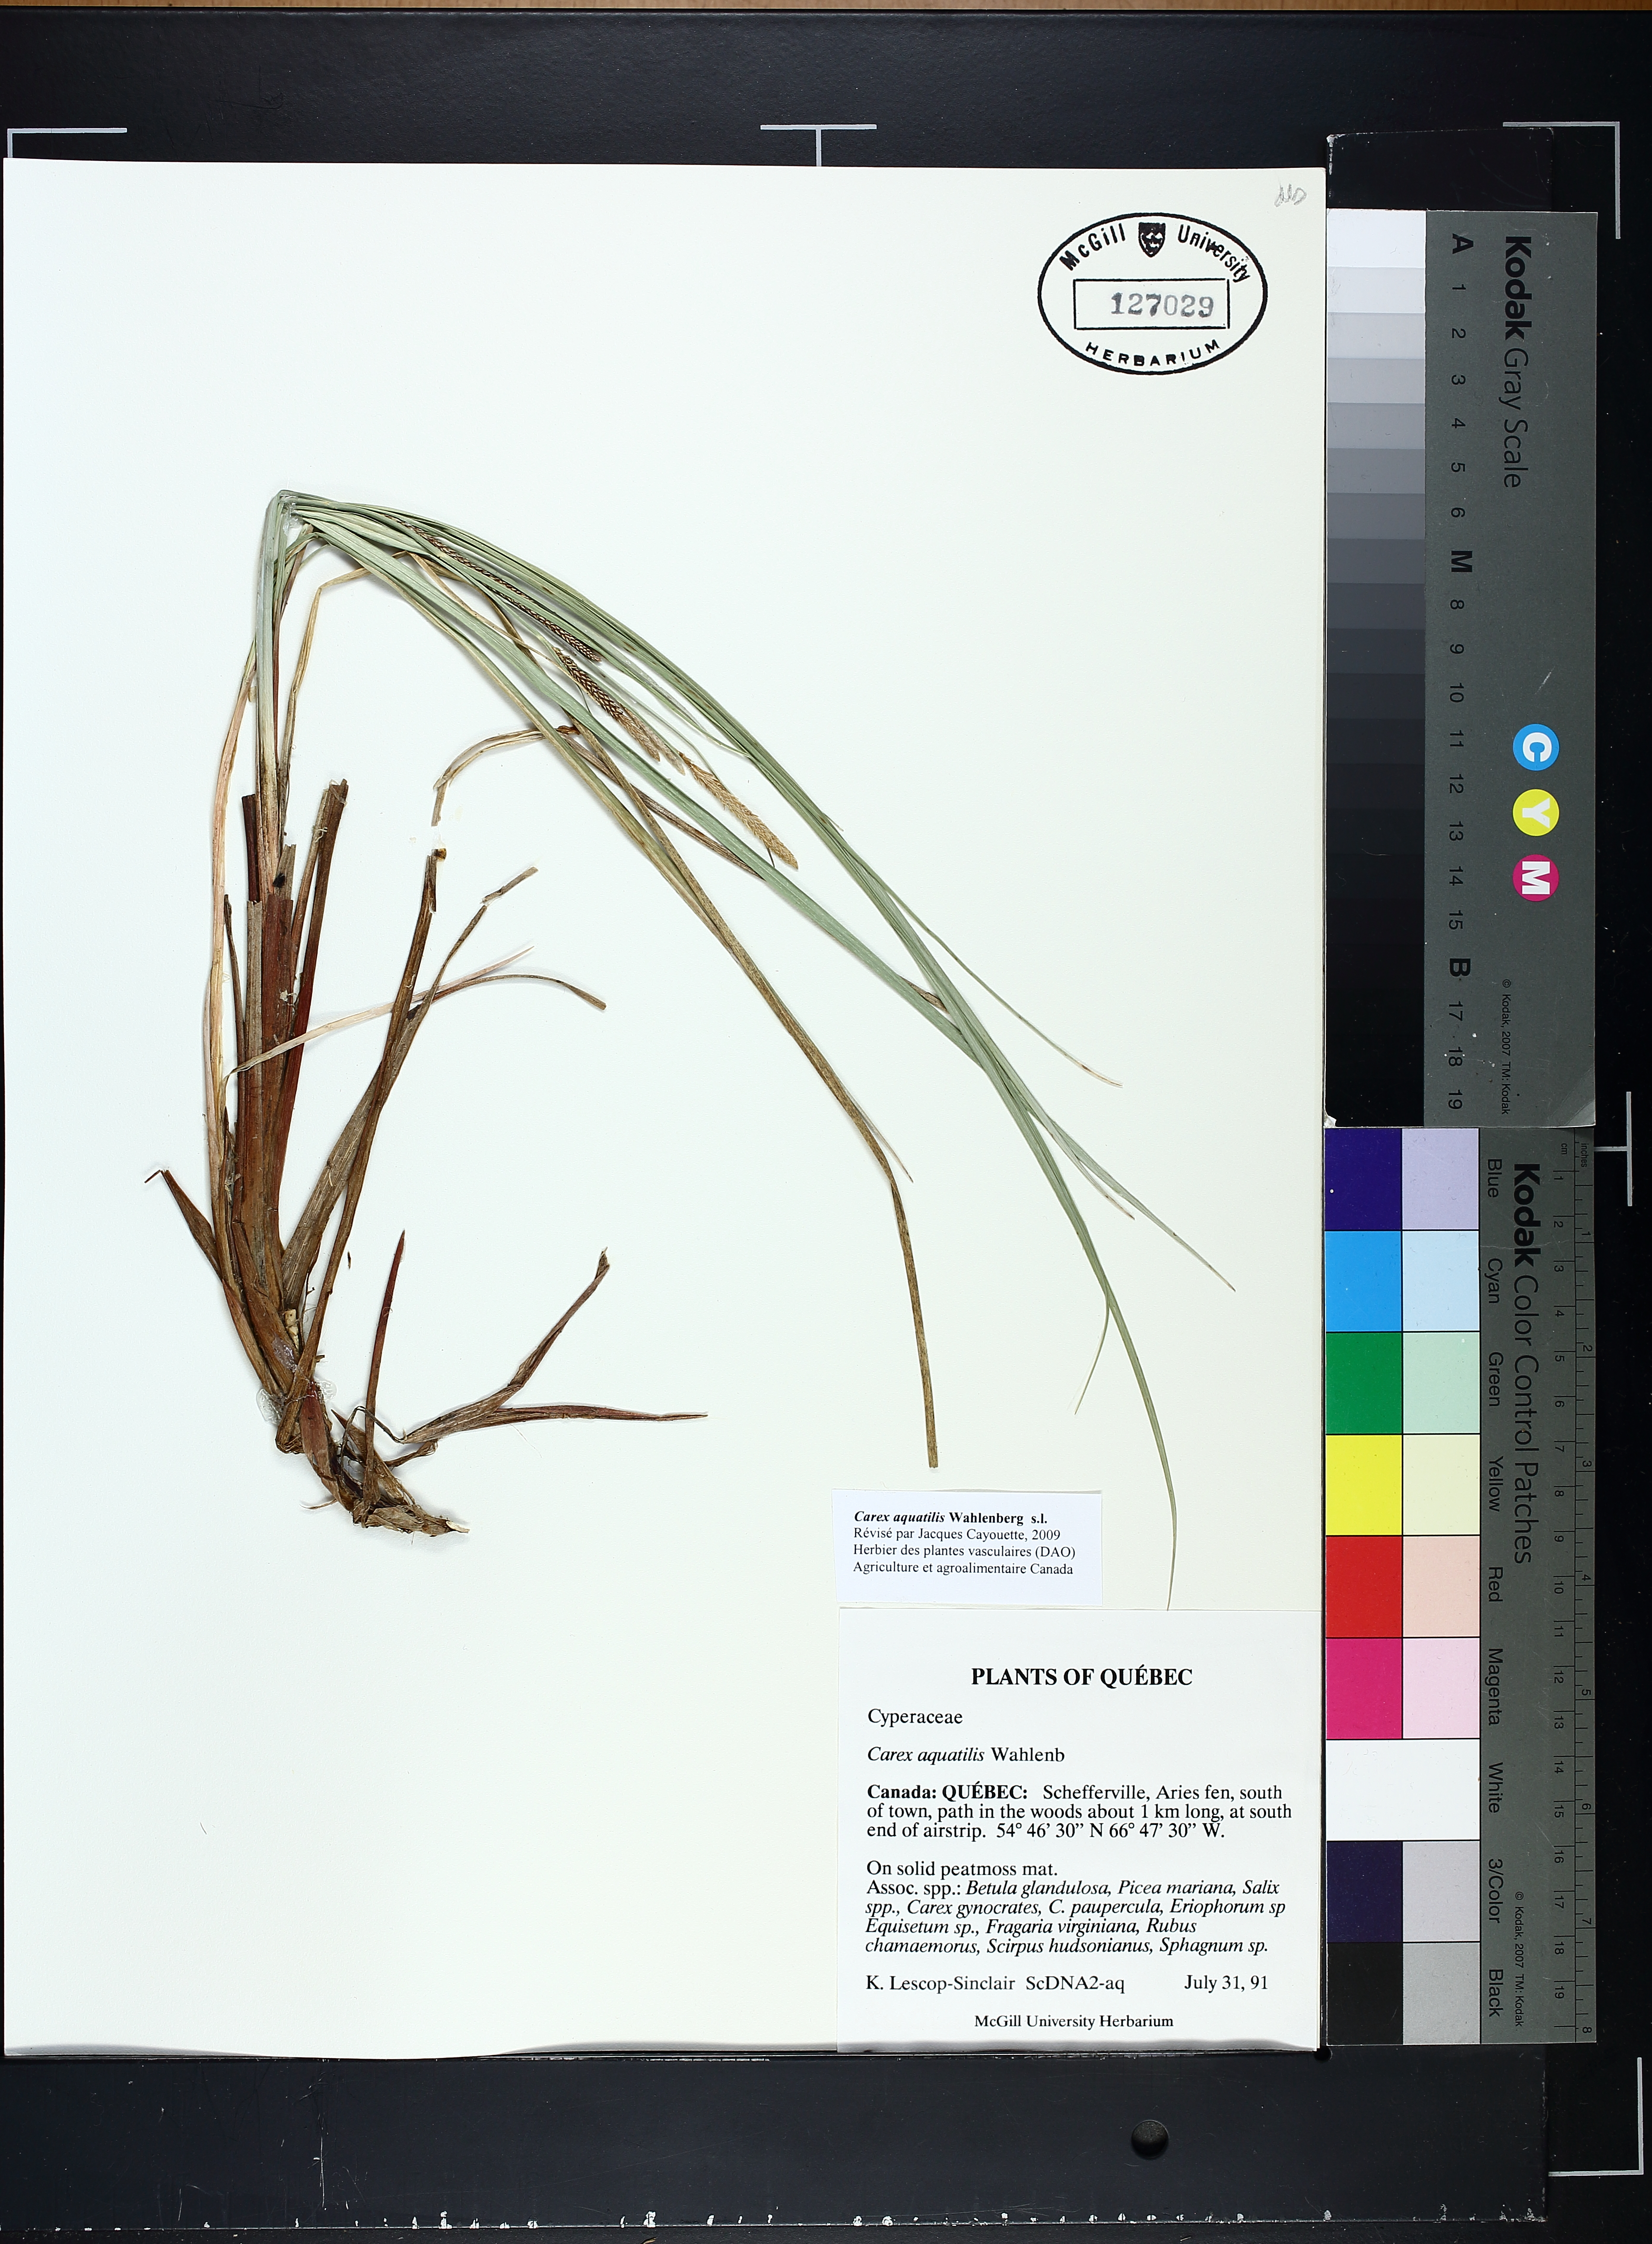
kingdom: Plantae
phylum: Tracheophyta
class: Liliopsida
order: Poales
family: Cyperaceae
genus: Carex
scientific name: Carex aquatilis
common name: Water sedge
